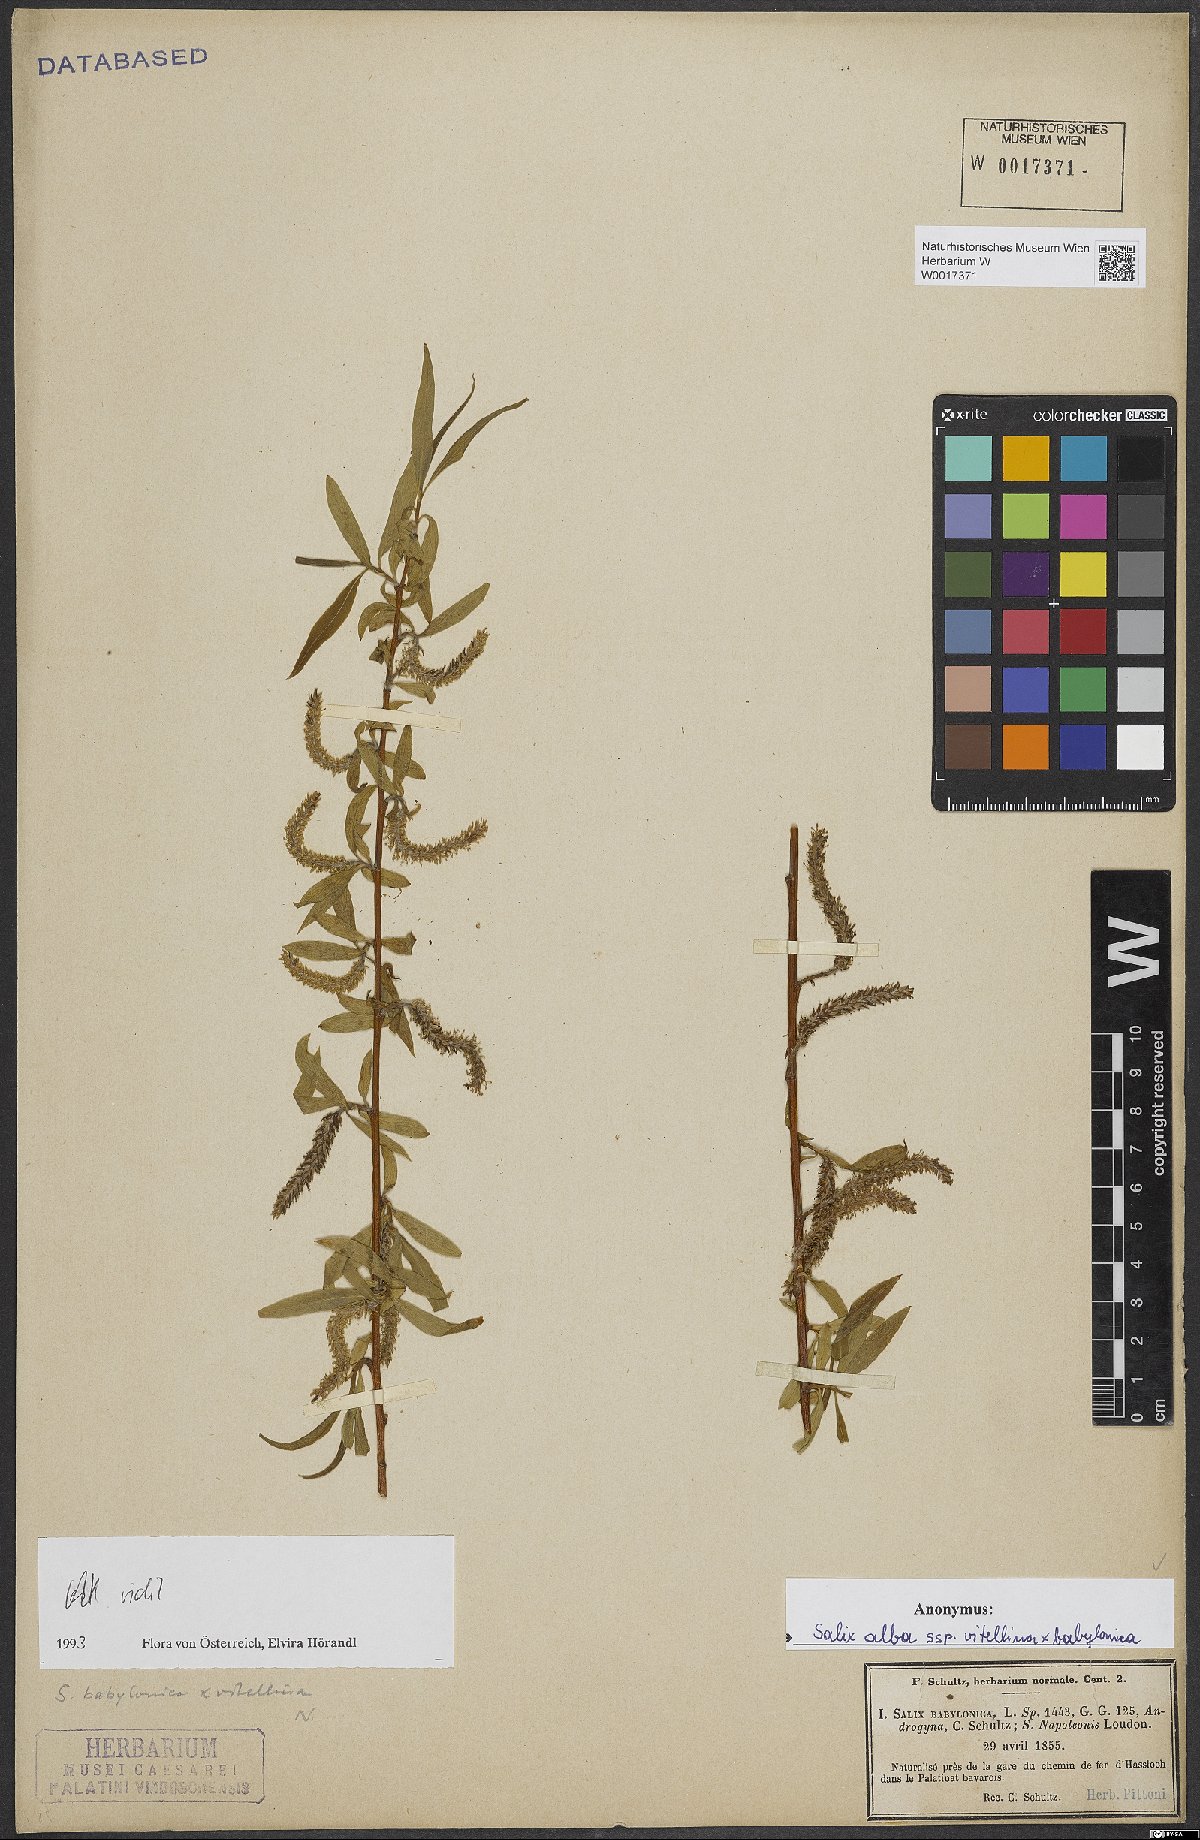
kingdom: Plantae
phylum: Tracheophyta
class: Magnoliopsida
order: Malpighiales
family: Salicaceae
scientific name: Salicaceae
